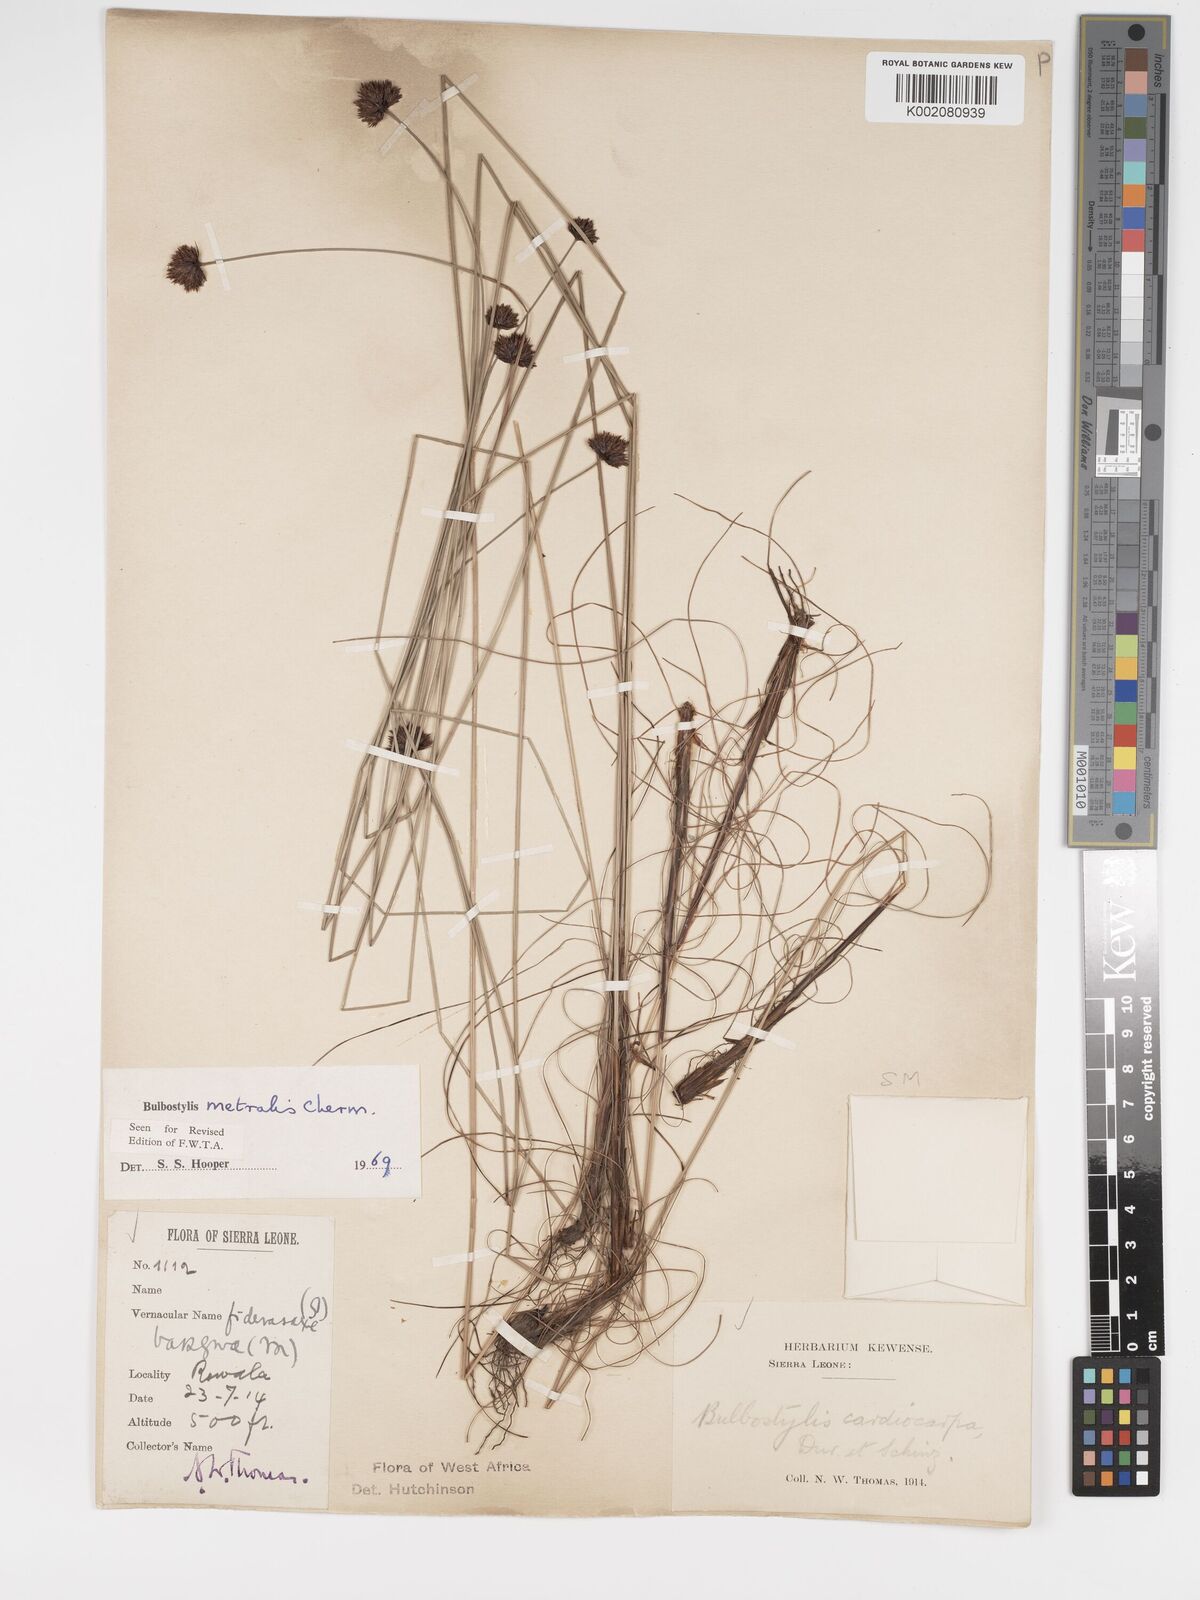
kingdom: Plantae
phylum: Tracheophyta
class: Liliopsida
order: Poales
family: Cyperaceae
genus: Bulbostylis
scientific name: Bulbostylis filamentosa
